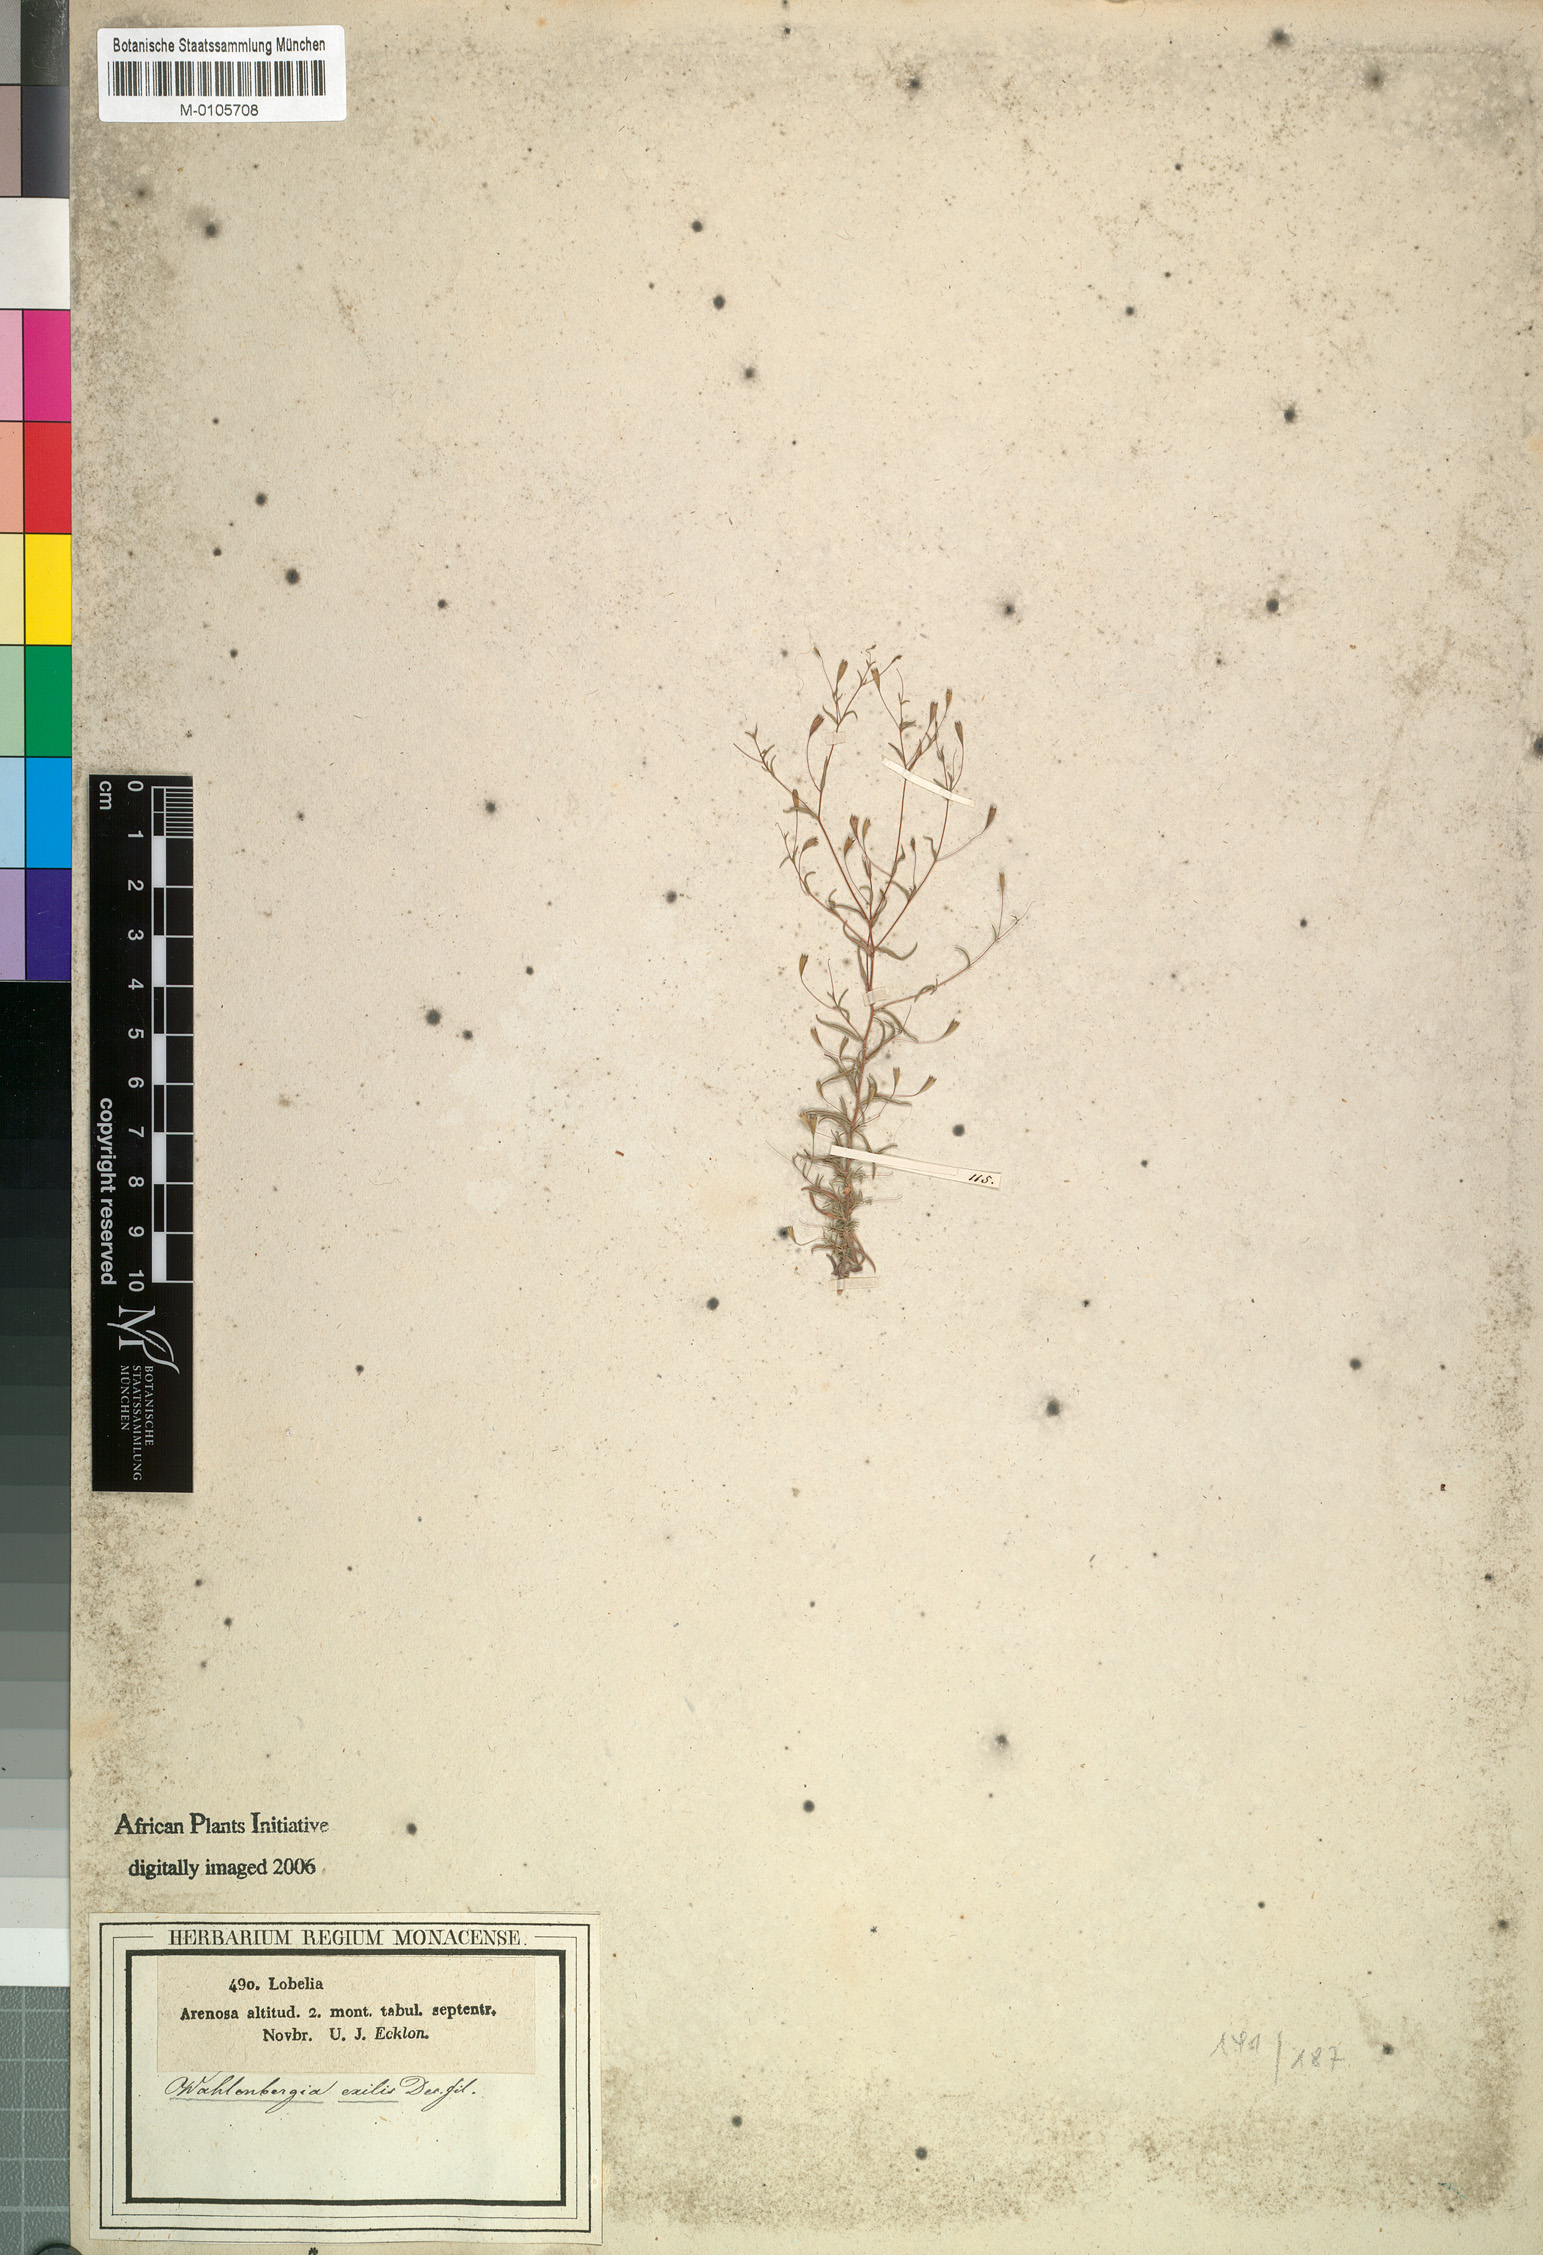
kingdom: Plantae
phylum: Tracheophyta
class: Magnoliopsida
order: Asterales
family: Campanulaceae
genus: Wahlenbergia
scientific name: Wahlenbergia exilis
